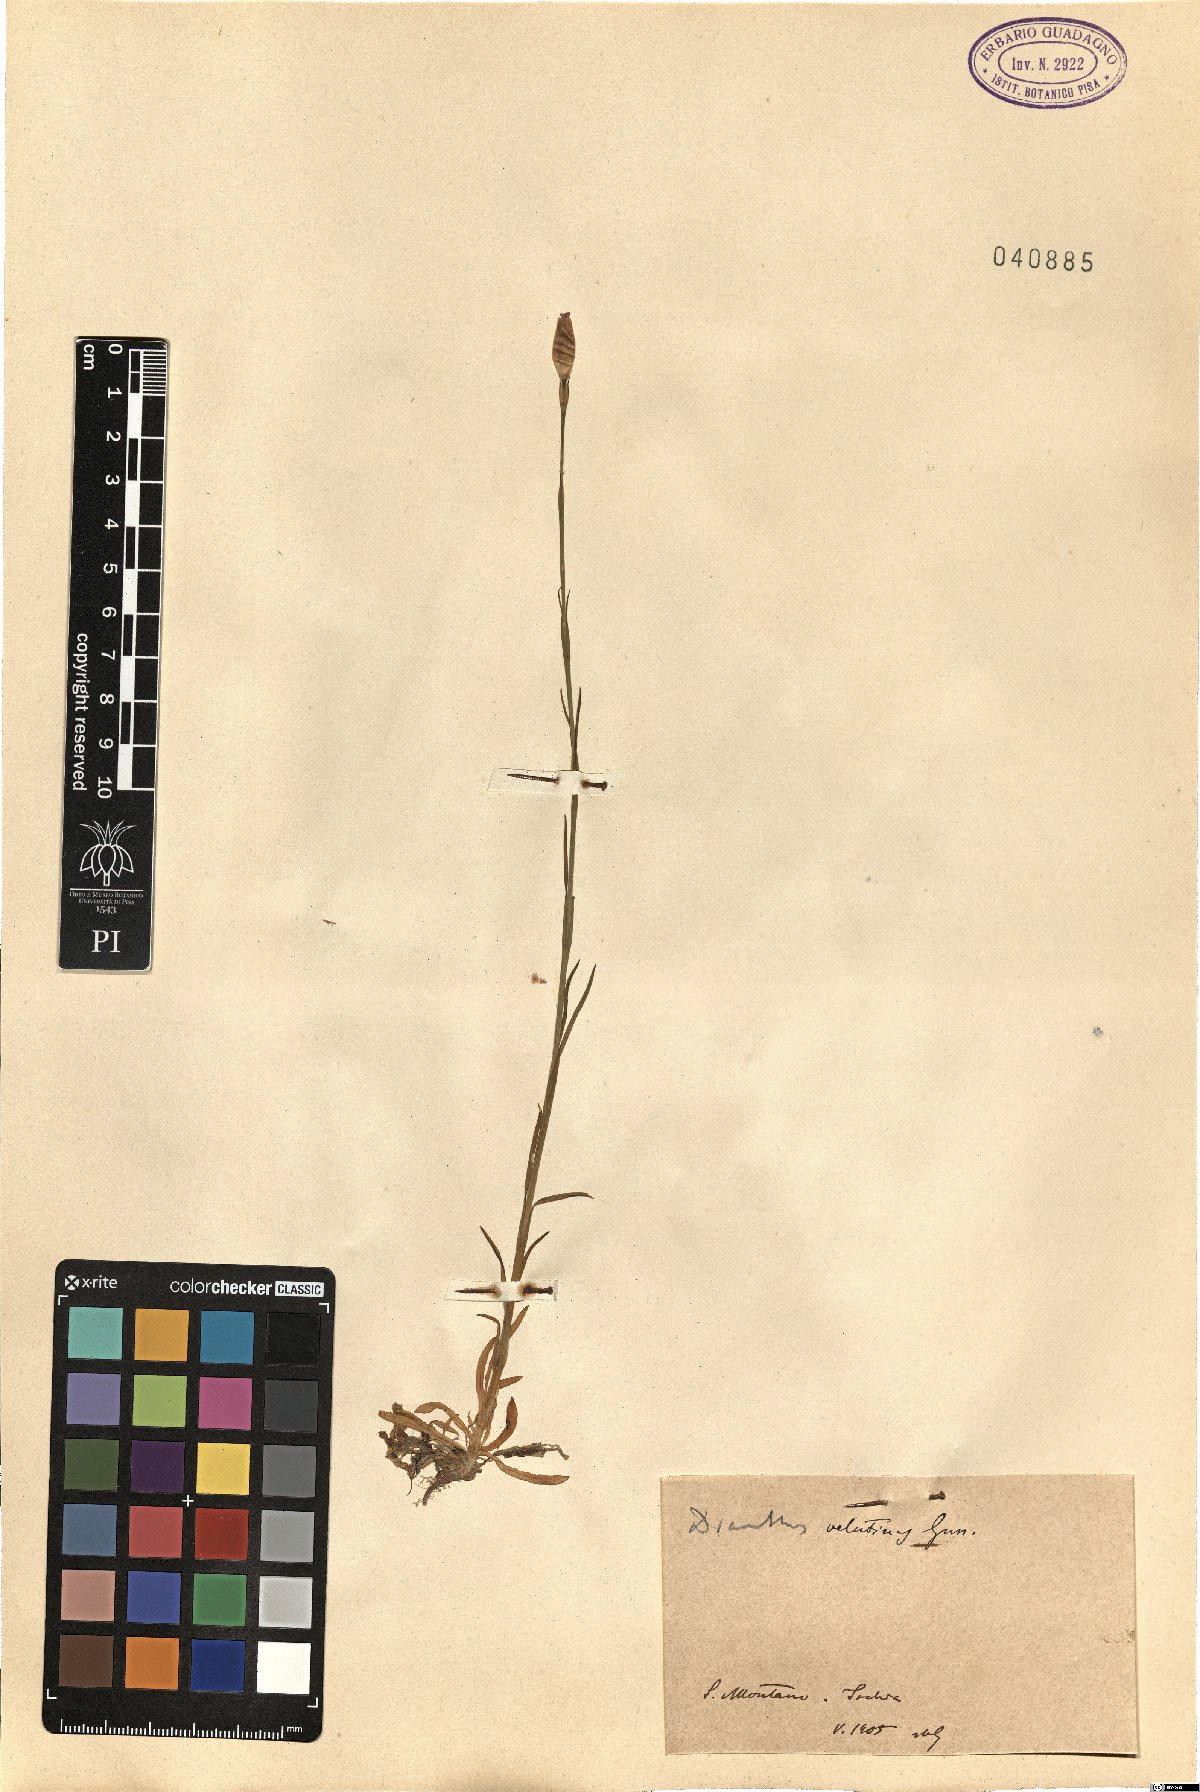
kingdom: Plantae
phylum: Tracheophyta
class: Magnoliopsida
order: Caryophyllales
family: Caryophyllaceae
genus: Petrorhagia
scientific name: Petrorhagia dubia
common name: Hairypink
